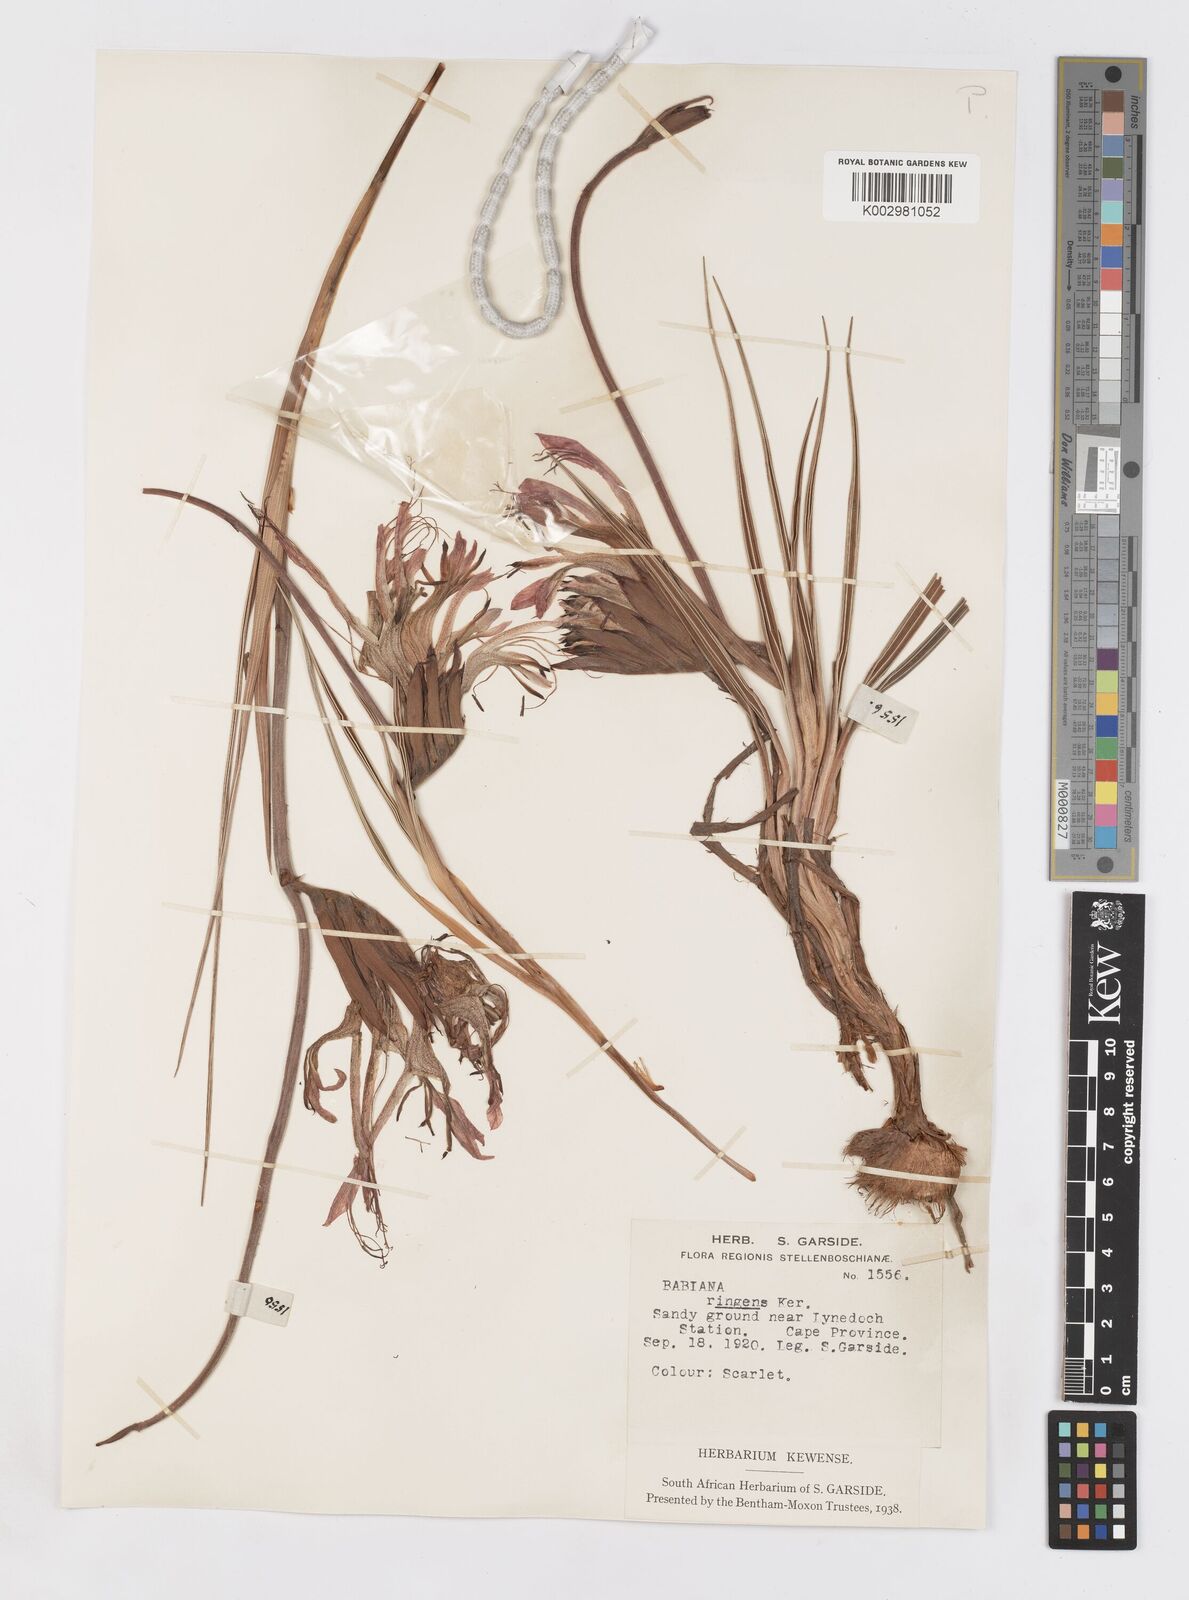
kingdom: Plantae
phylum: Tracheophyta
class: Liliopsida
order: Asparagales
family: Iridaceae
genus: Babiana
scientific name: Babiana ringens
